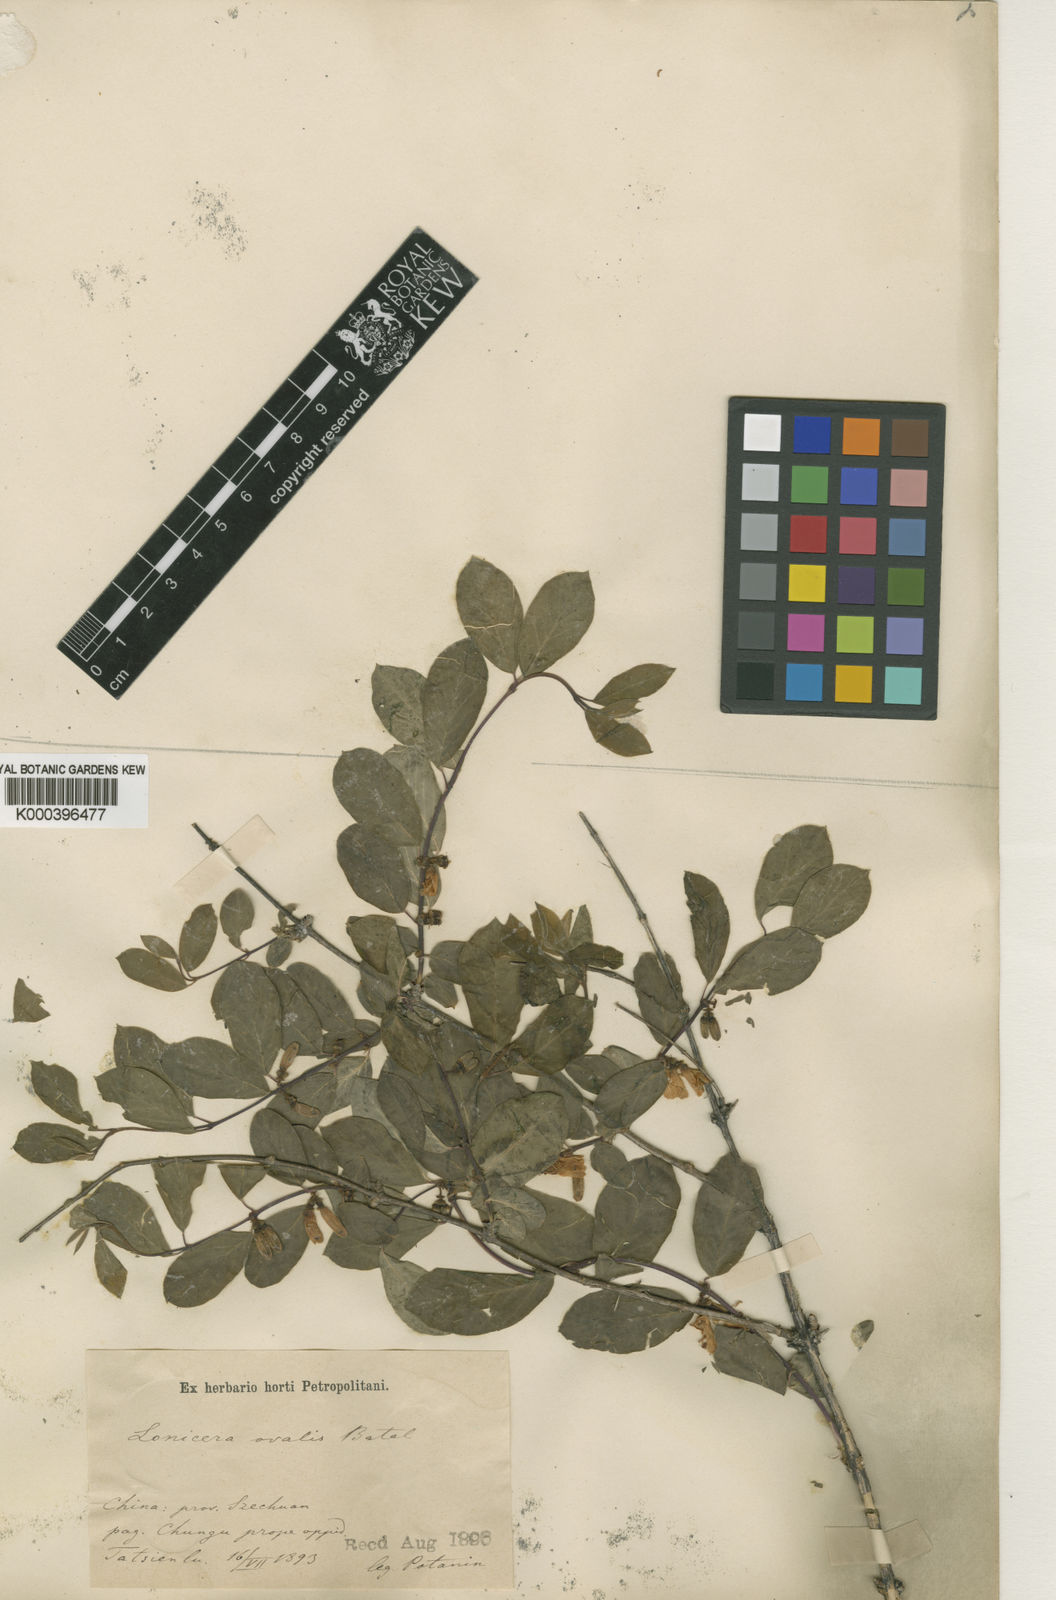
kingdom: Plantae
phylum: Tracheophyta
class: Magnoliopsida
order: Dipsacales
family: Caprifoliaceae
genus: Lonicera
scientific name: Lonicera trichosantha
